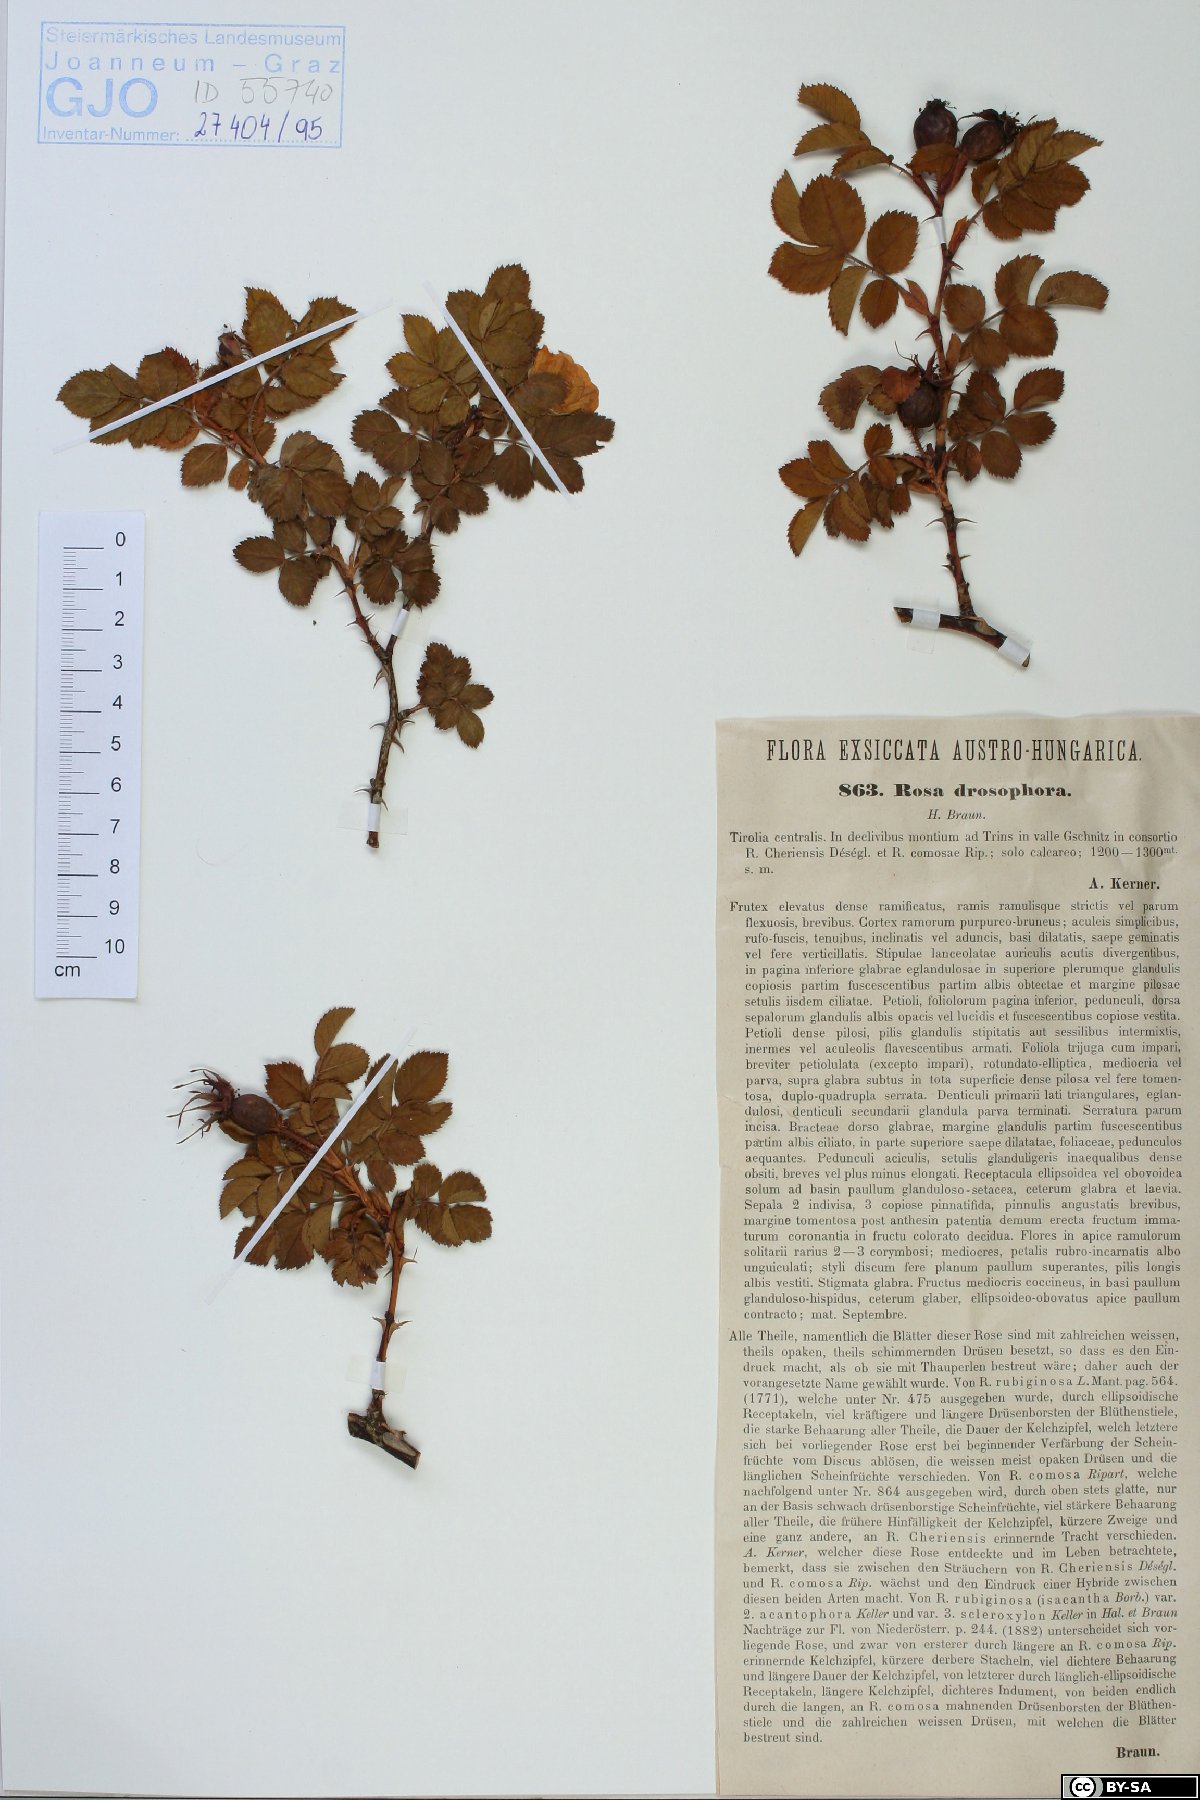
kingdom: Plantae
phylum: Tracheophyta
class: Magnoliopsida
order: Rosales
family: Rosaceae
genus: Rosa
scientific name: Rosa rubiginosa
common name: Sweet-briar
